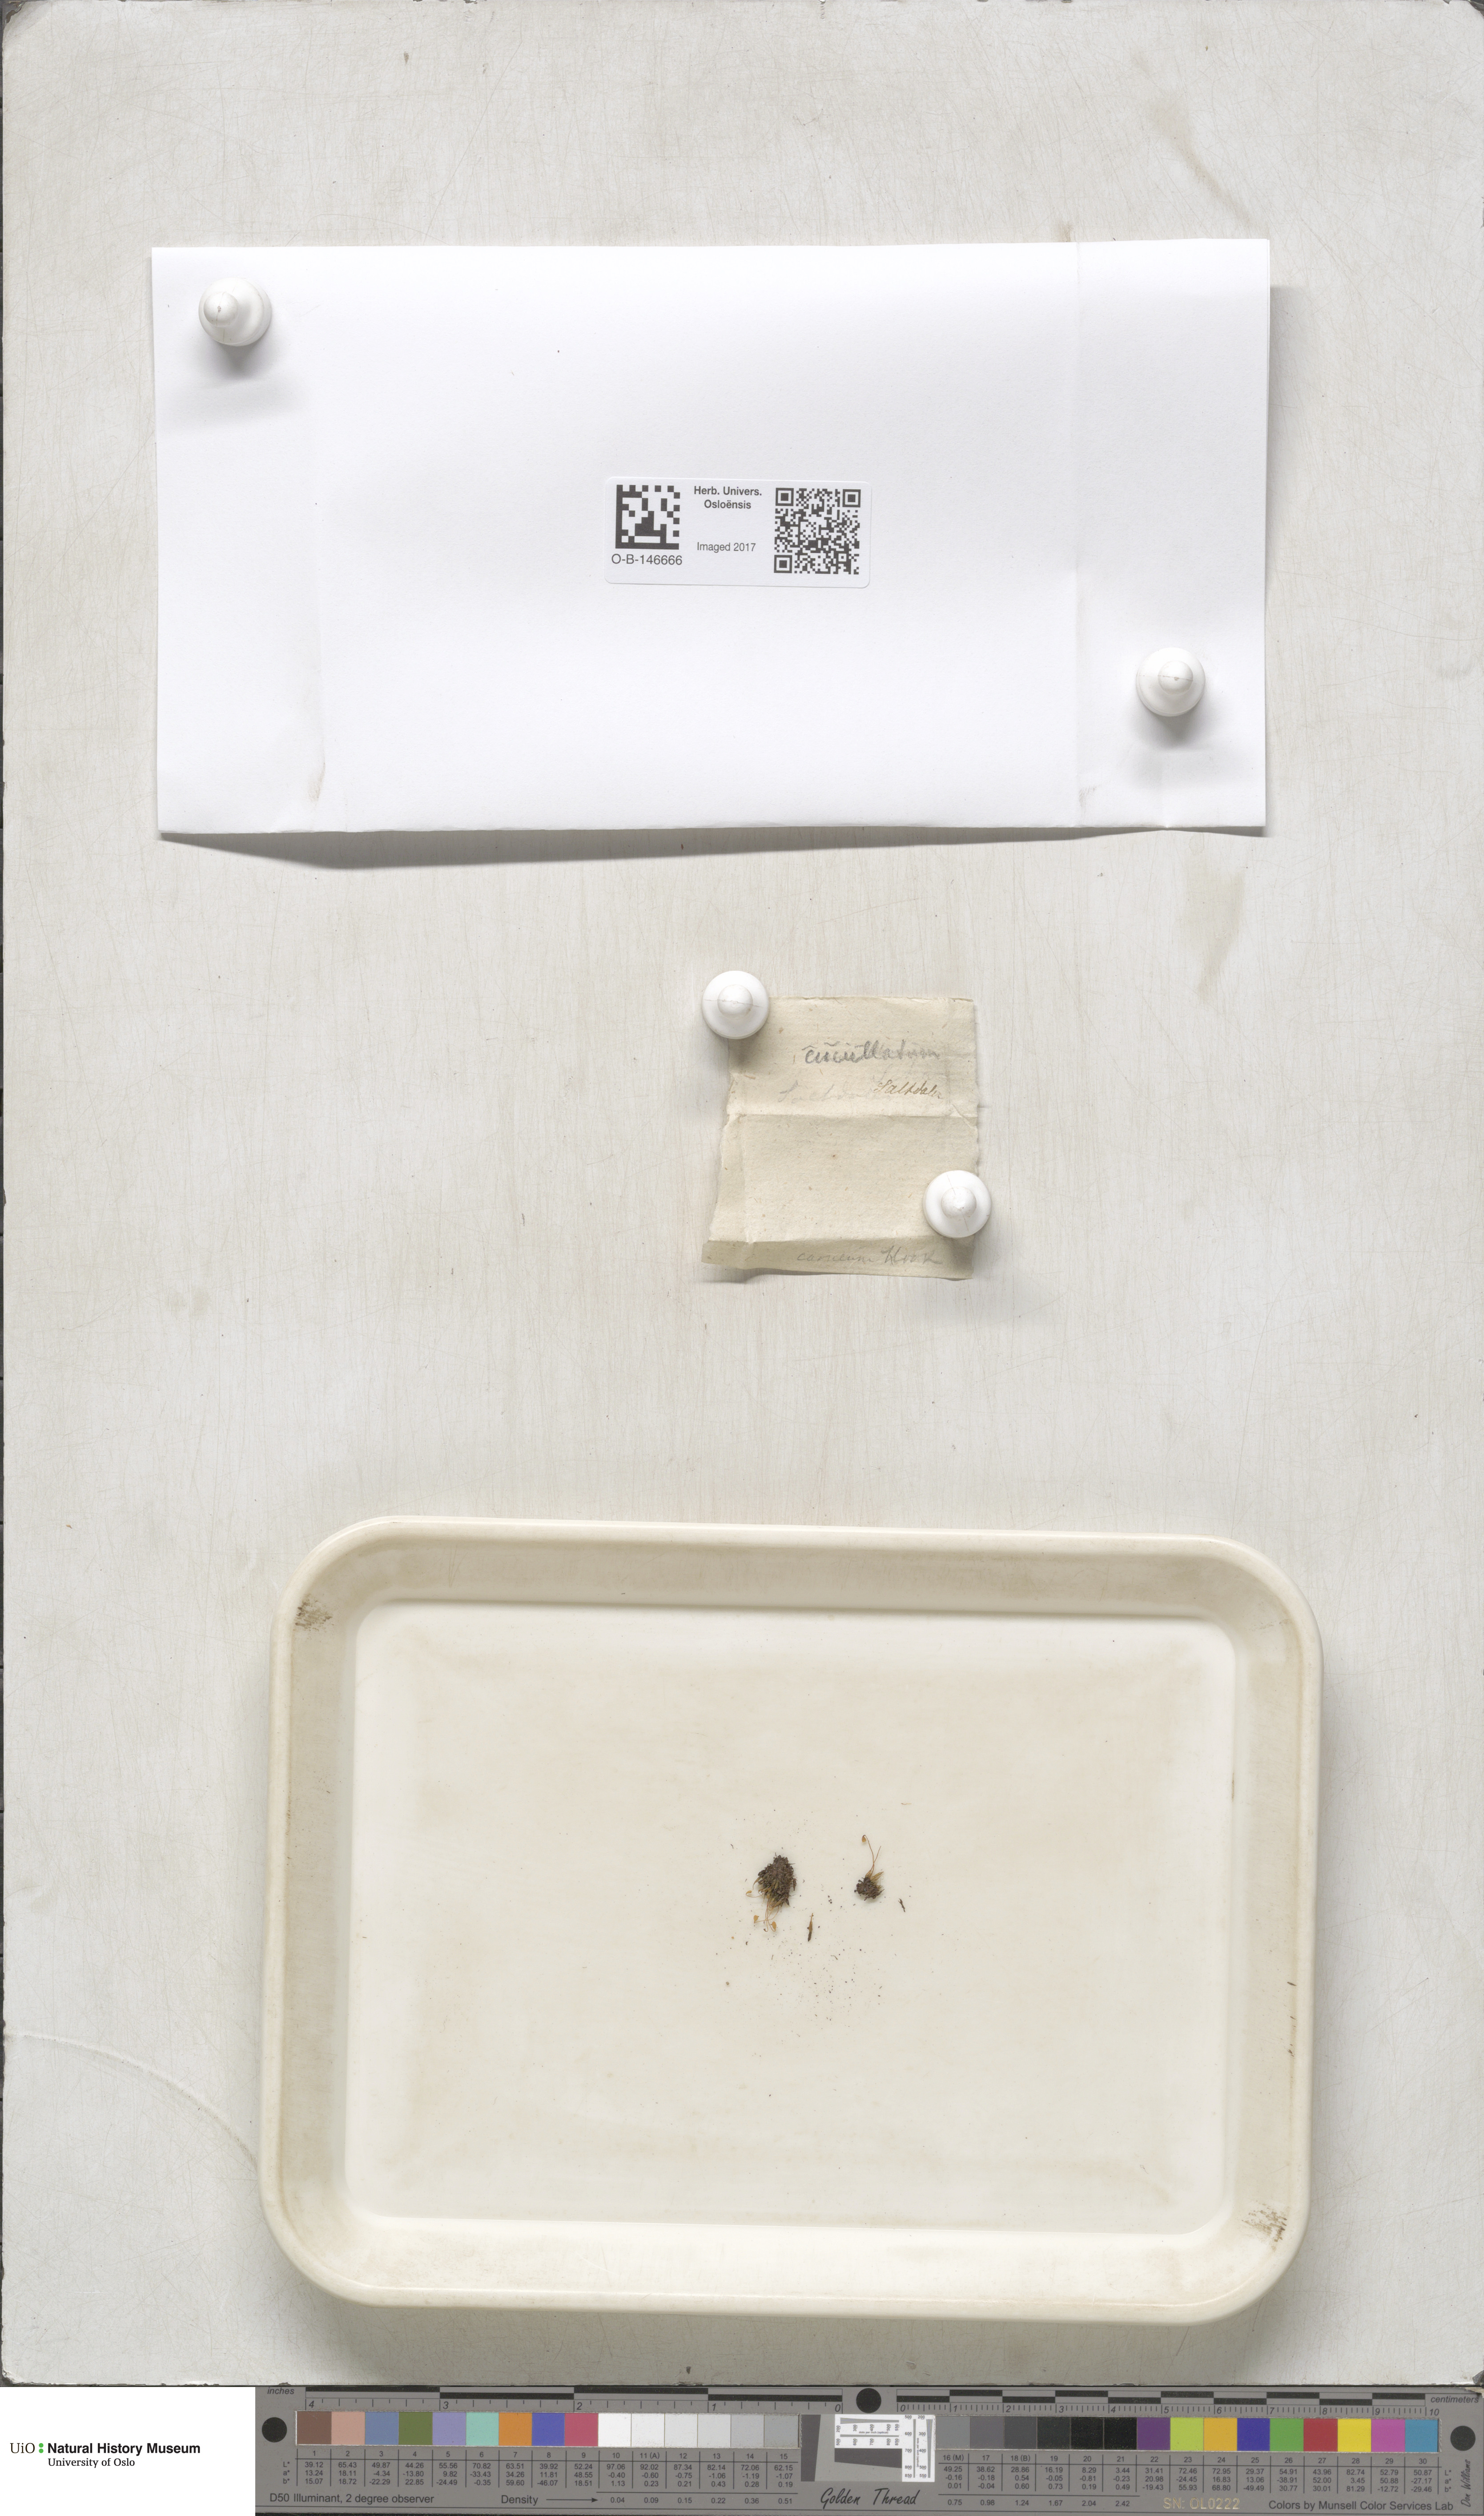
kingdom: Plantae
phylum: Bryophyta
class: Bryopsida
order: Bryales
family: Mniaceae
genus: Pohlia
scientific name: Pohlia obtusifolia
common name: Blunt nodding moss
